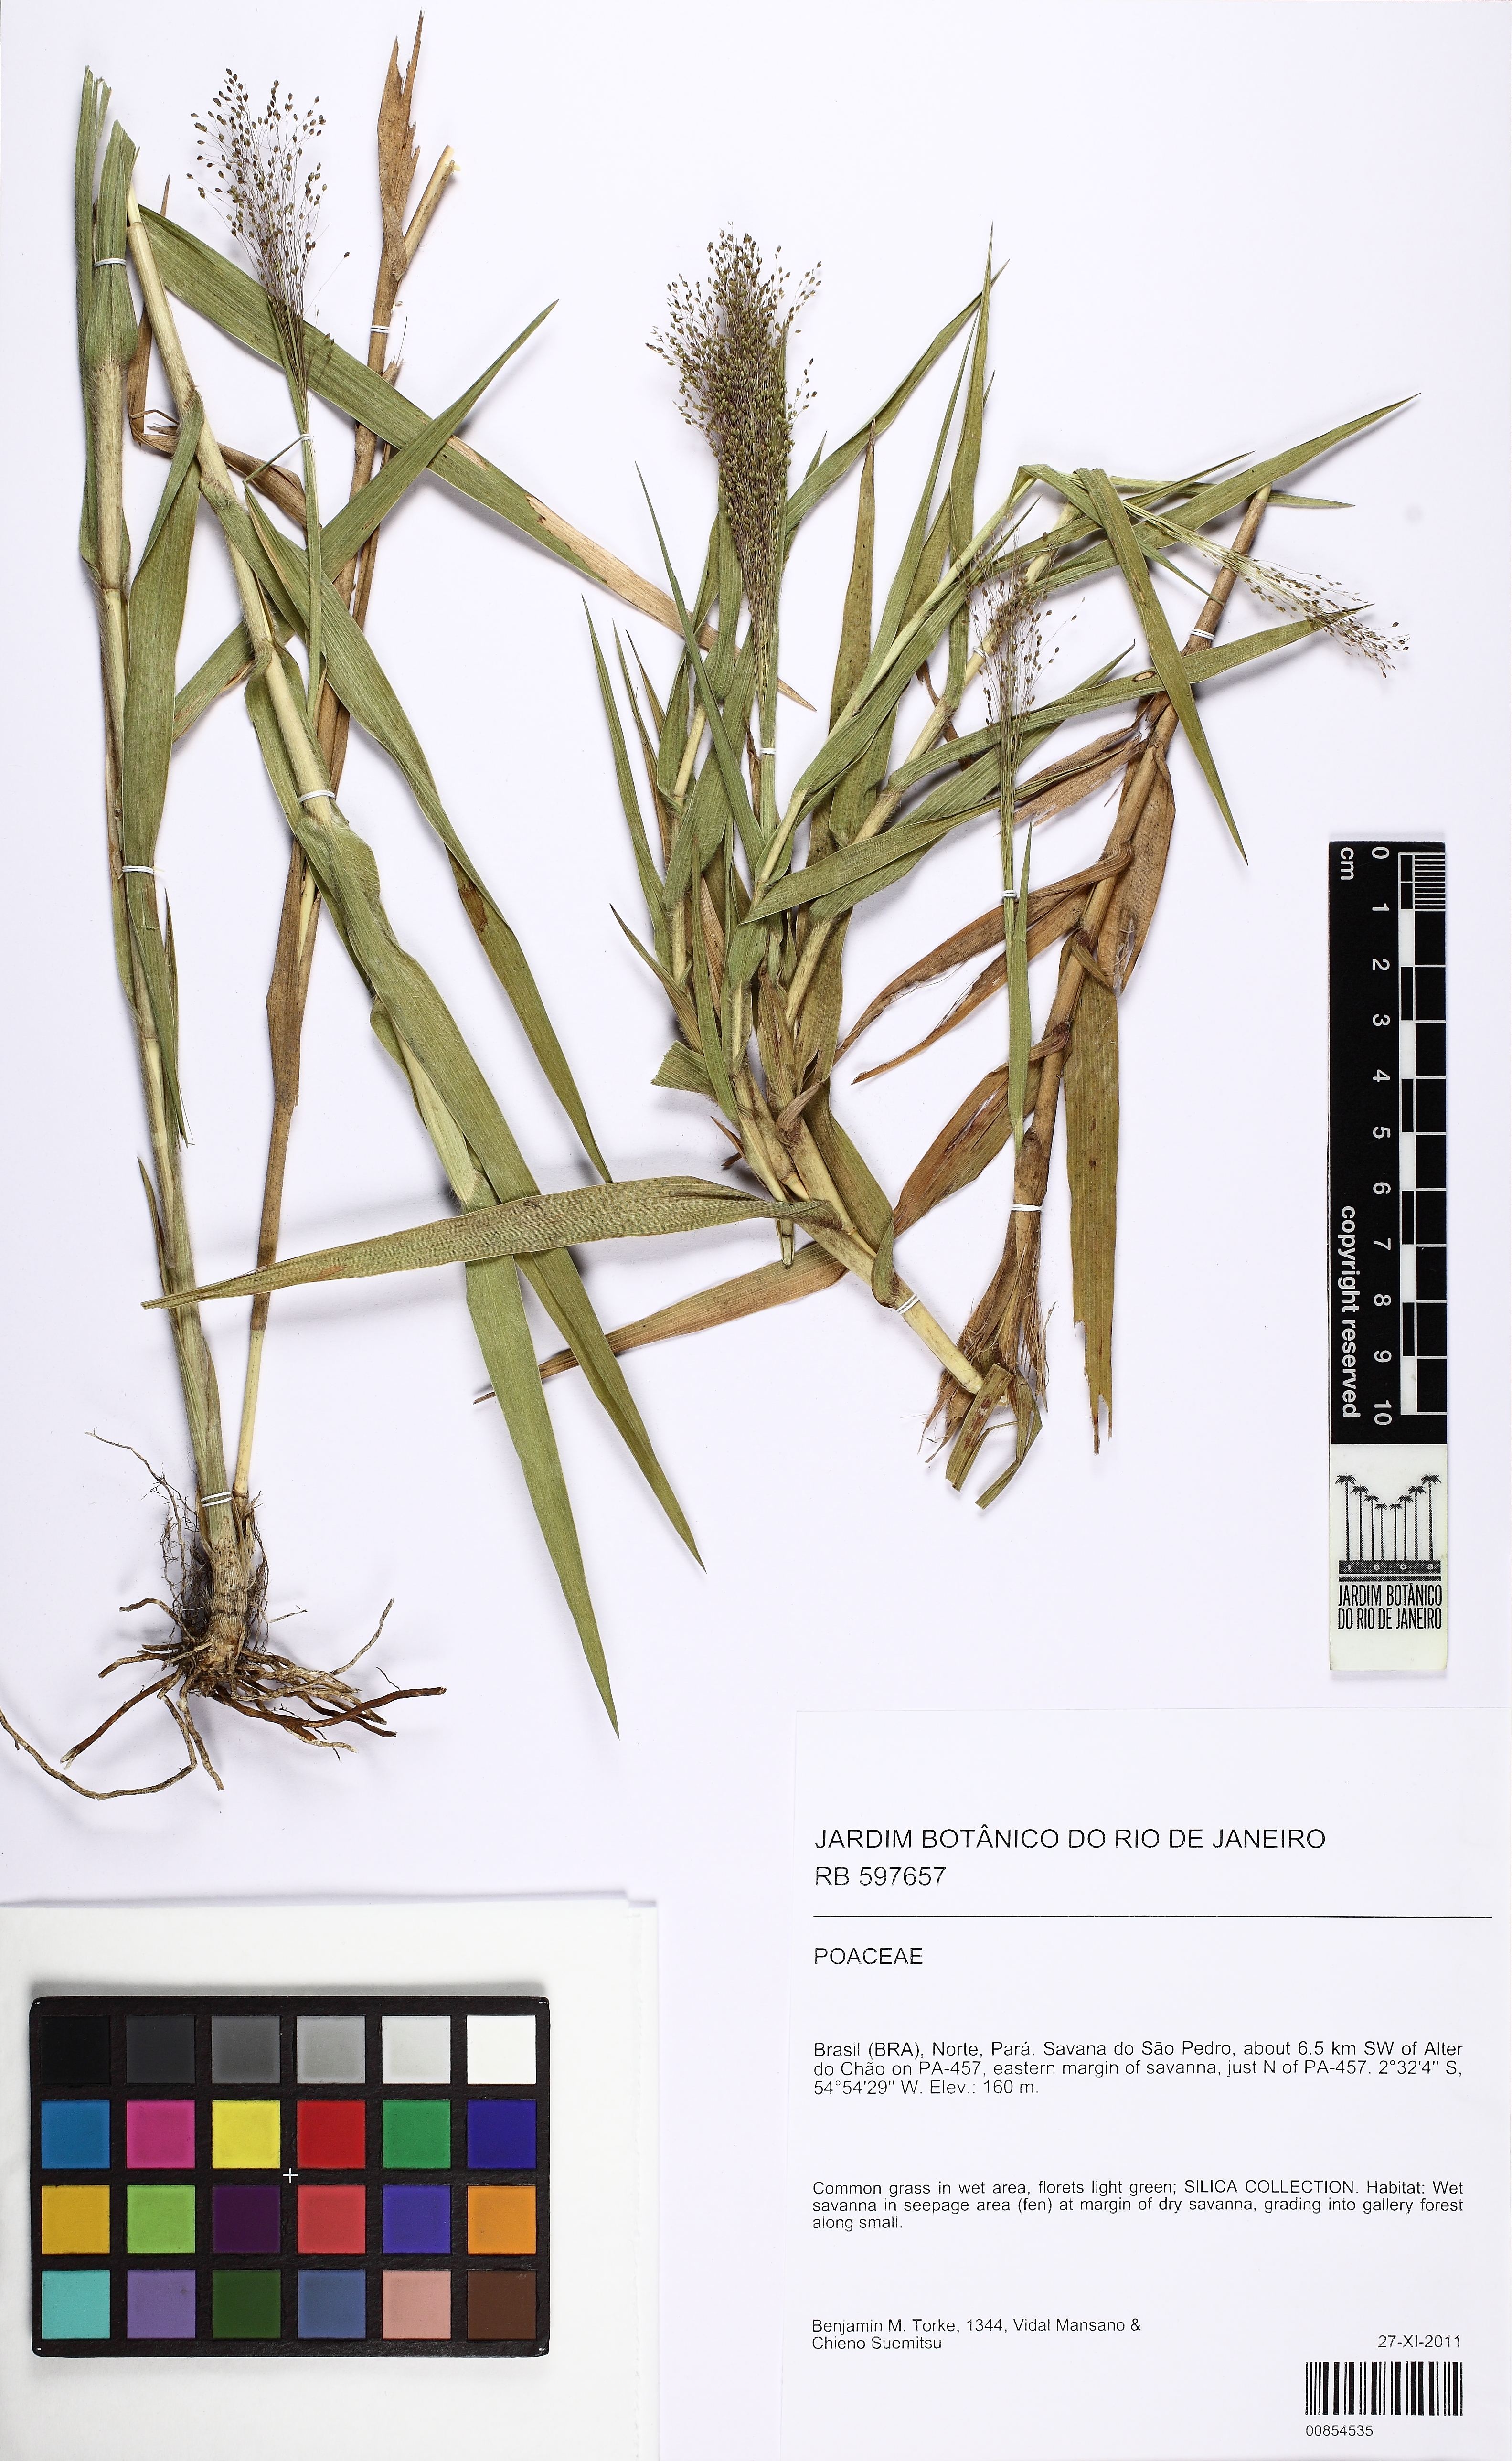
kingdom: Plantae
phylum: Tracheophyta
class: Liliopsida
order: Poales
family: Poaceae
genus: Trichanthecium
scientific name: Trichanthecium nervosum
